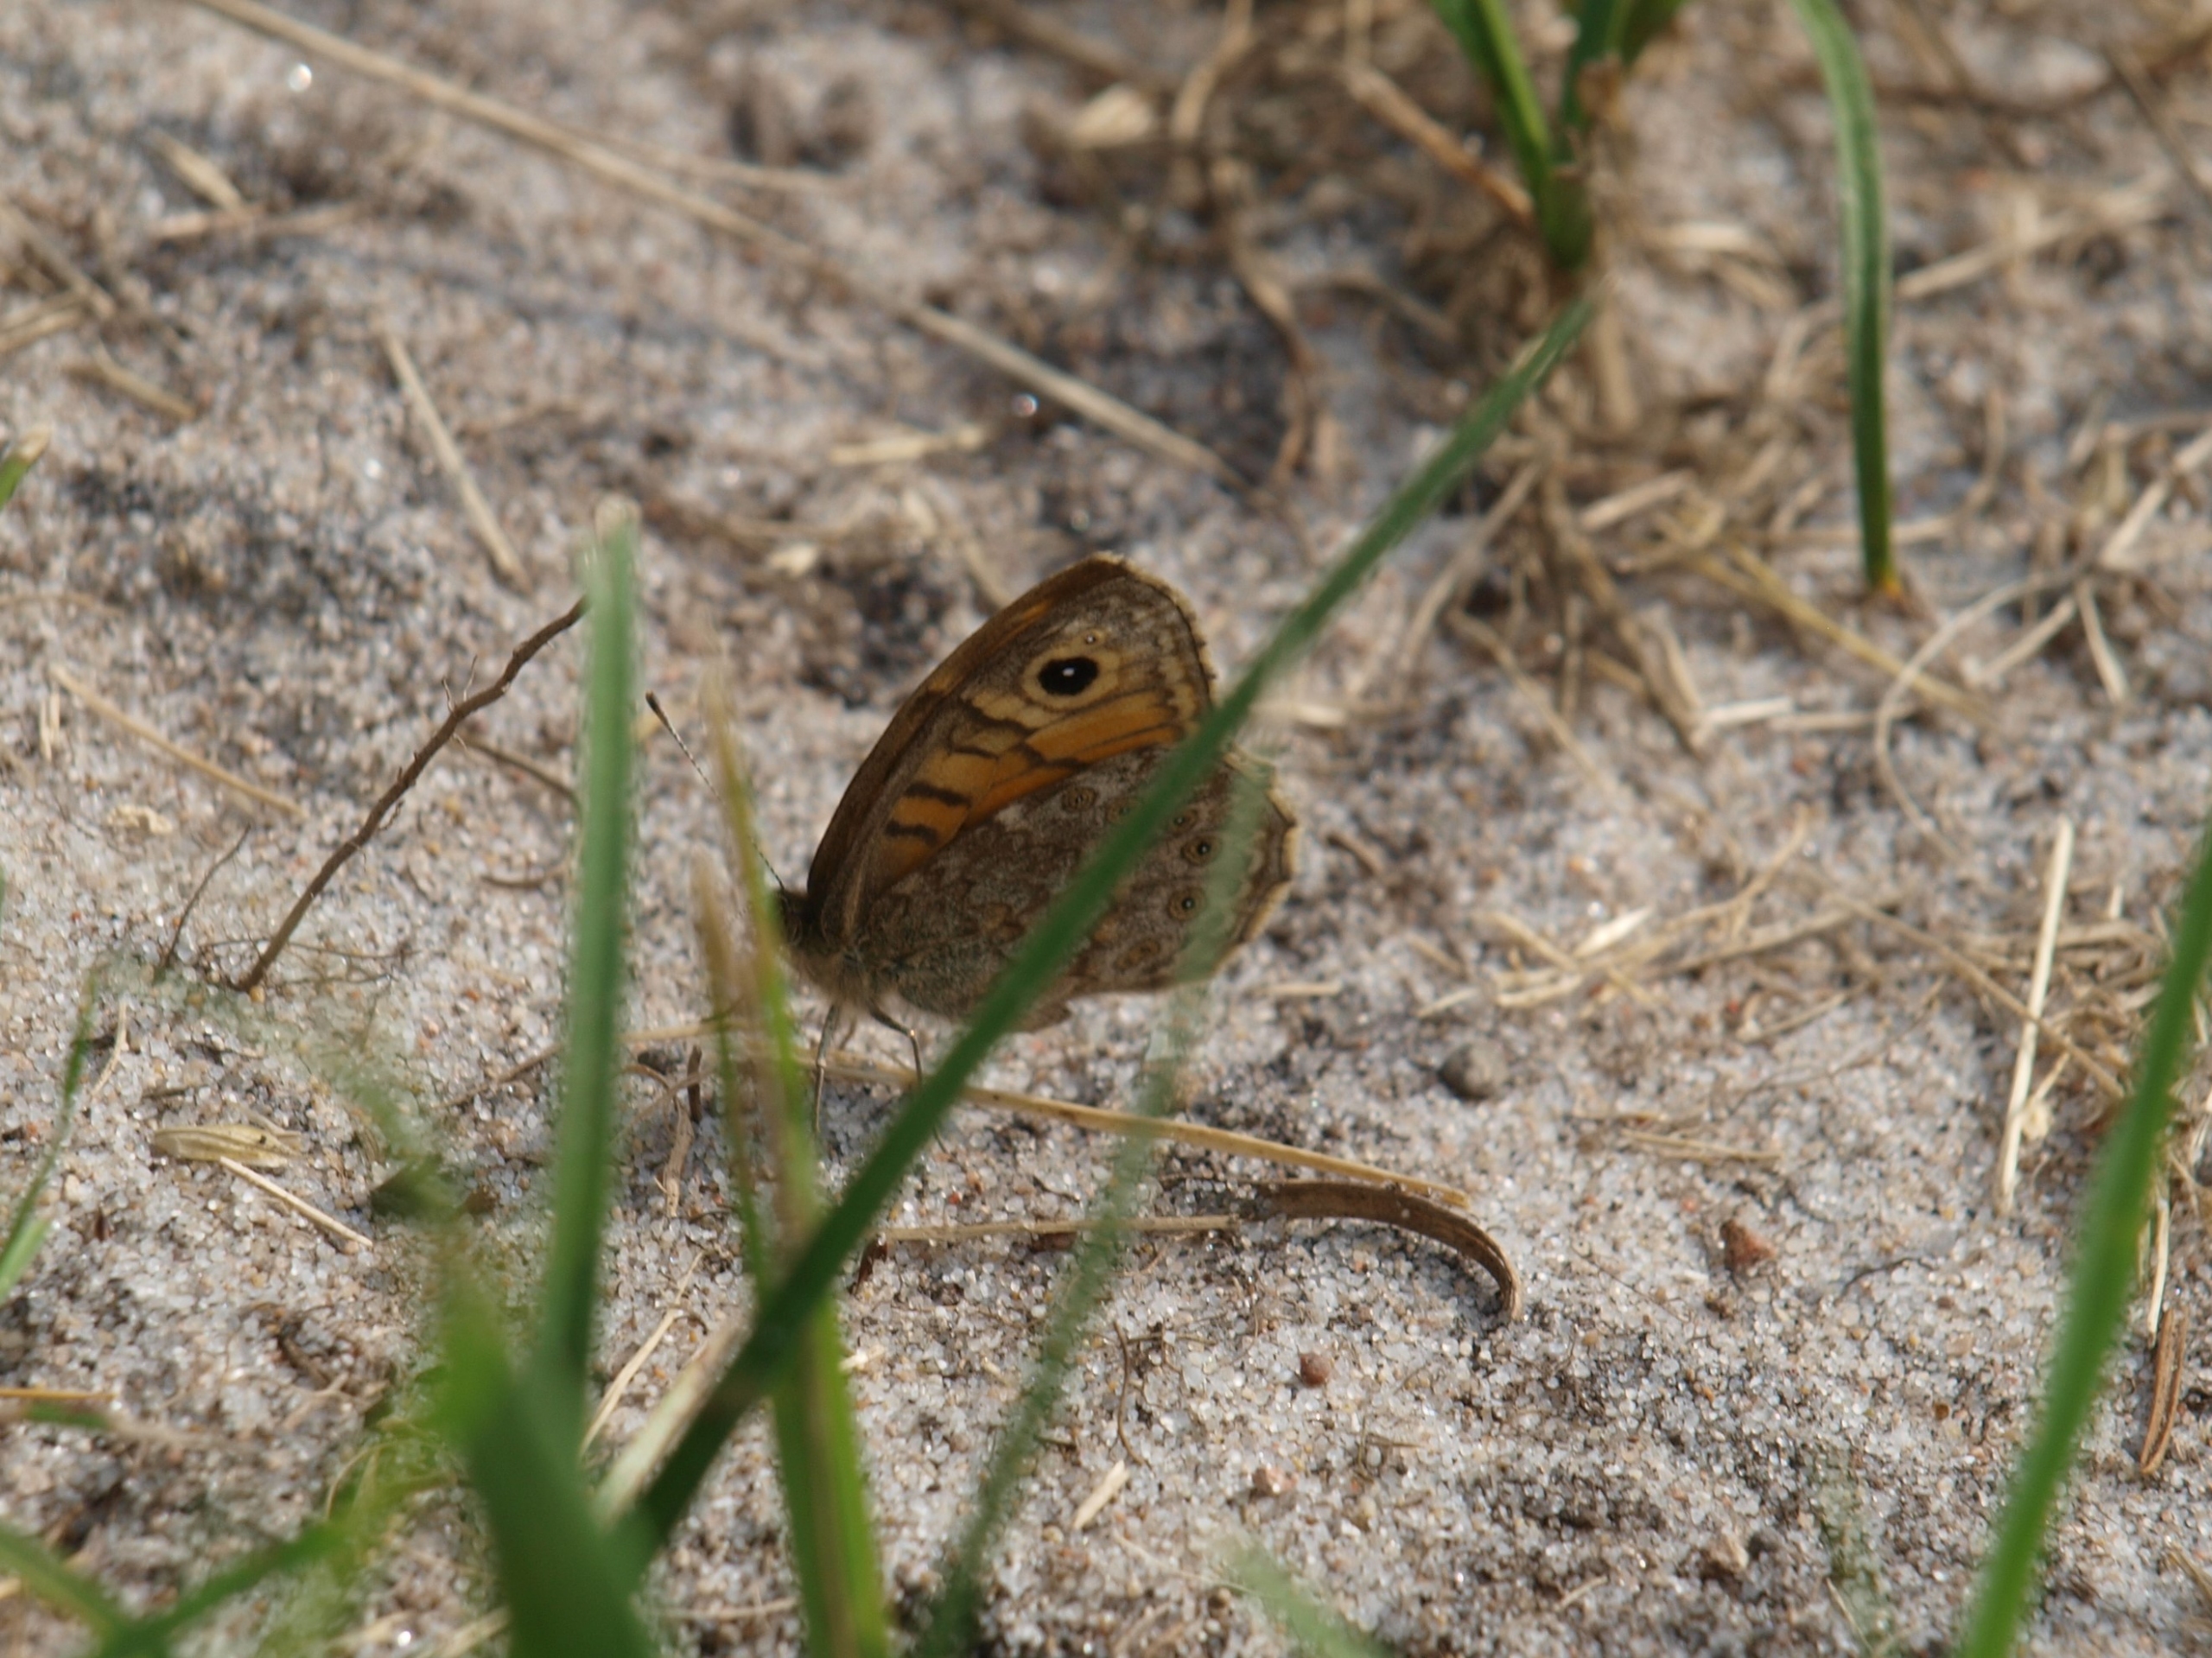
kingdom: Animalia
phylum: Arthropoda
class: Insecta
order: Lepidoptera
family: Nymphalidae
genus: Pararge
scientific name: Pararge Lasiommata megera
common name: Vejrandøje
